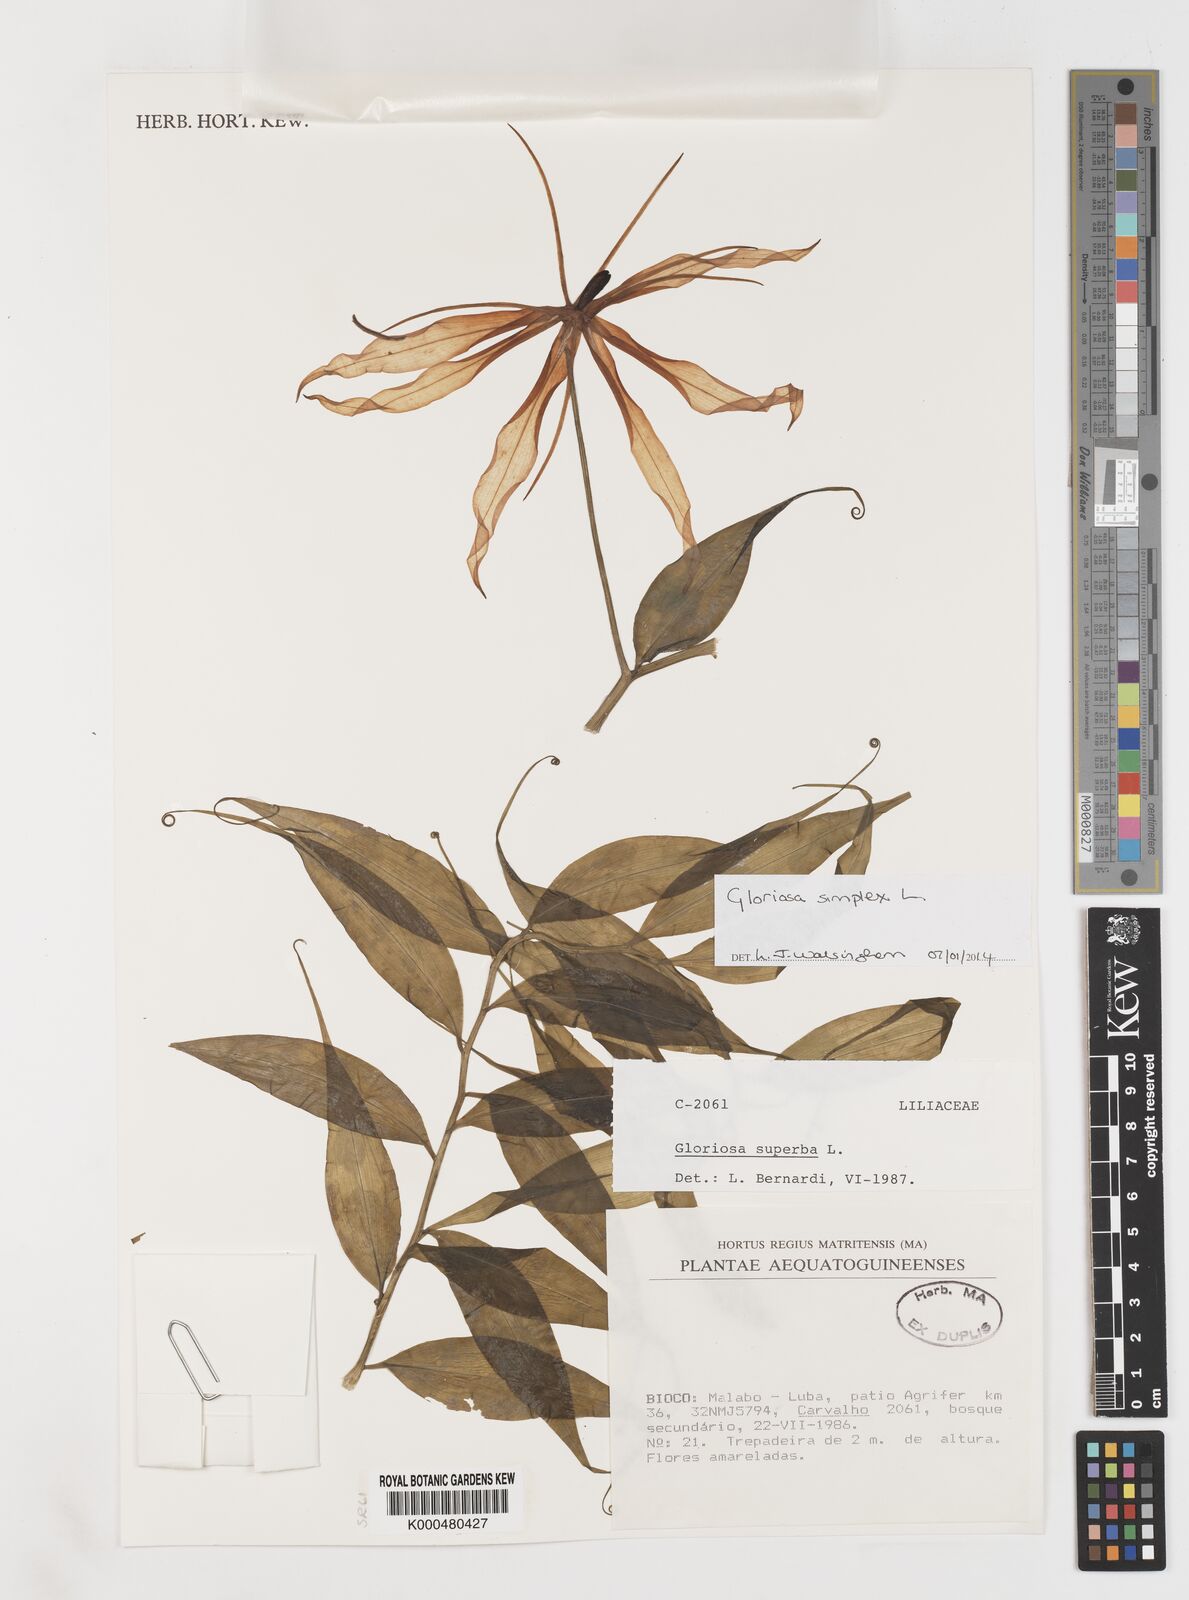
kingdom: Plantae
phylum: Tracheophyta
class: Liliopsida
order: Liliales
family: Colchicaceae
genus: Gloriosa
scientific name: Gloriosa simplex
